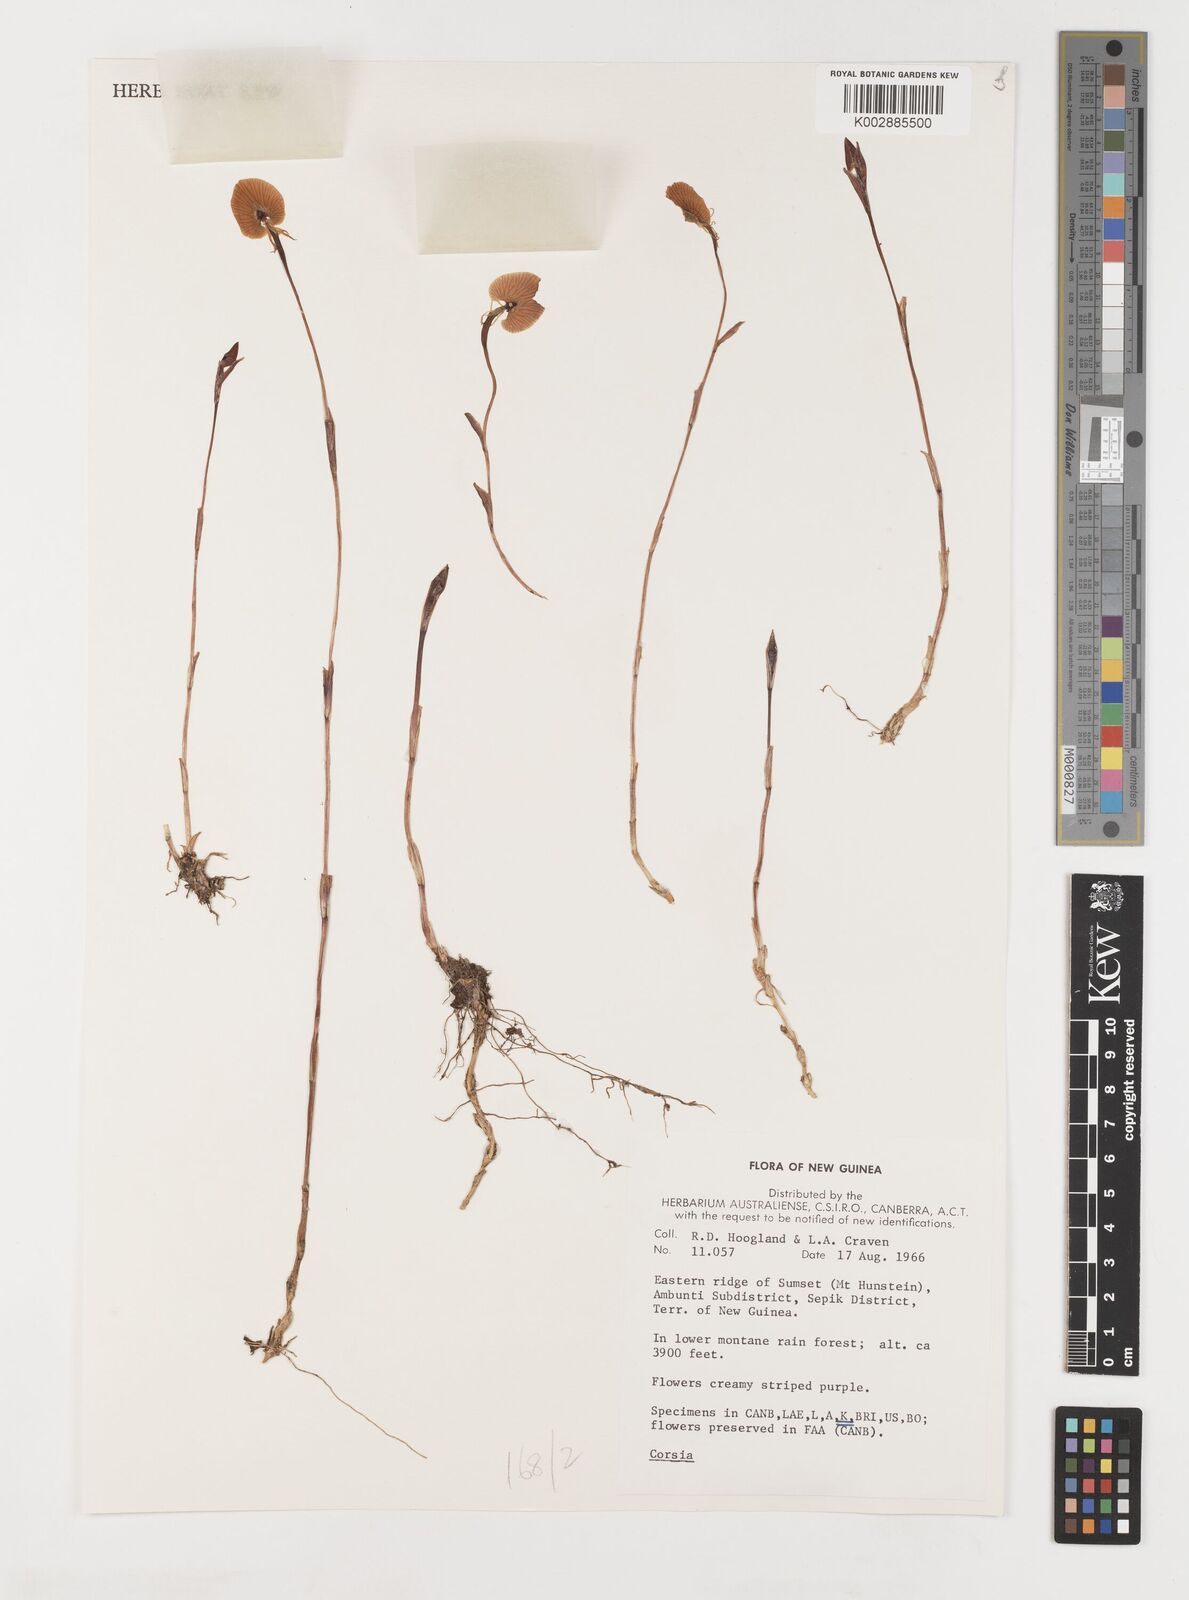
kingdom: Plantae
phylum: Tracheophyta
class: Liliopsida
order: Liliales
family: Corsiaceae
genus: Corsia
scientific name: Corsia
